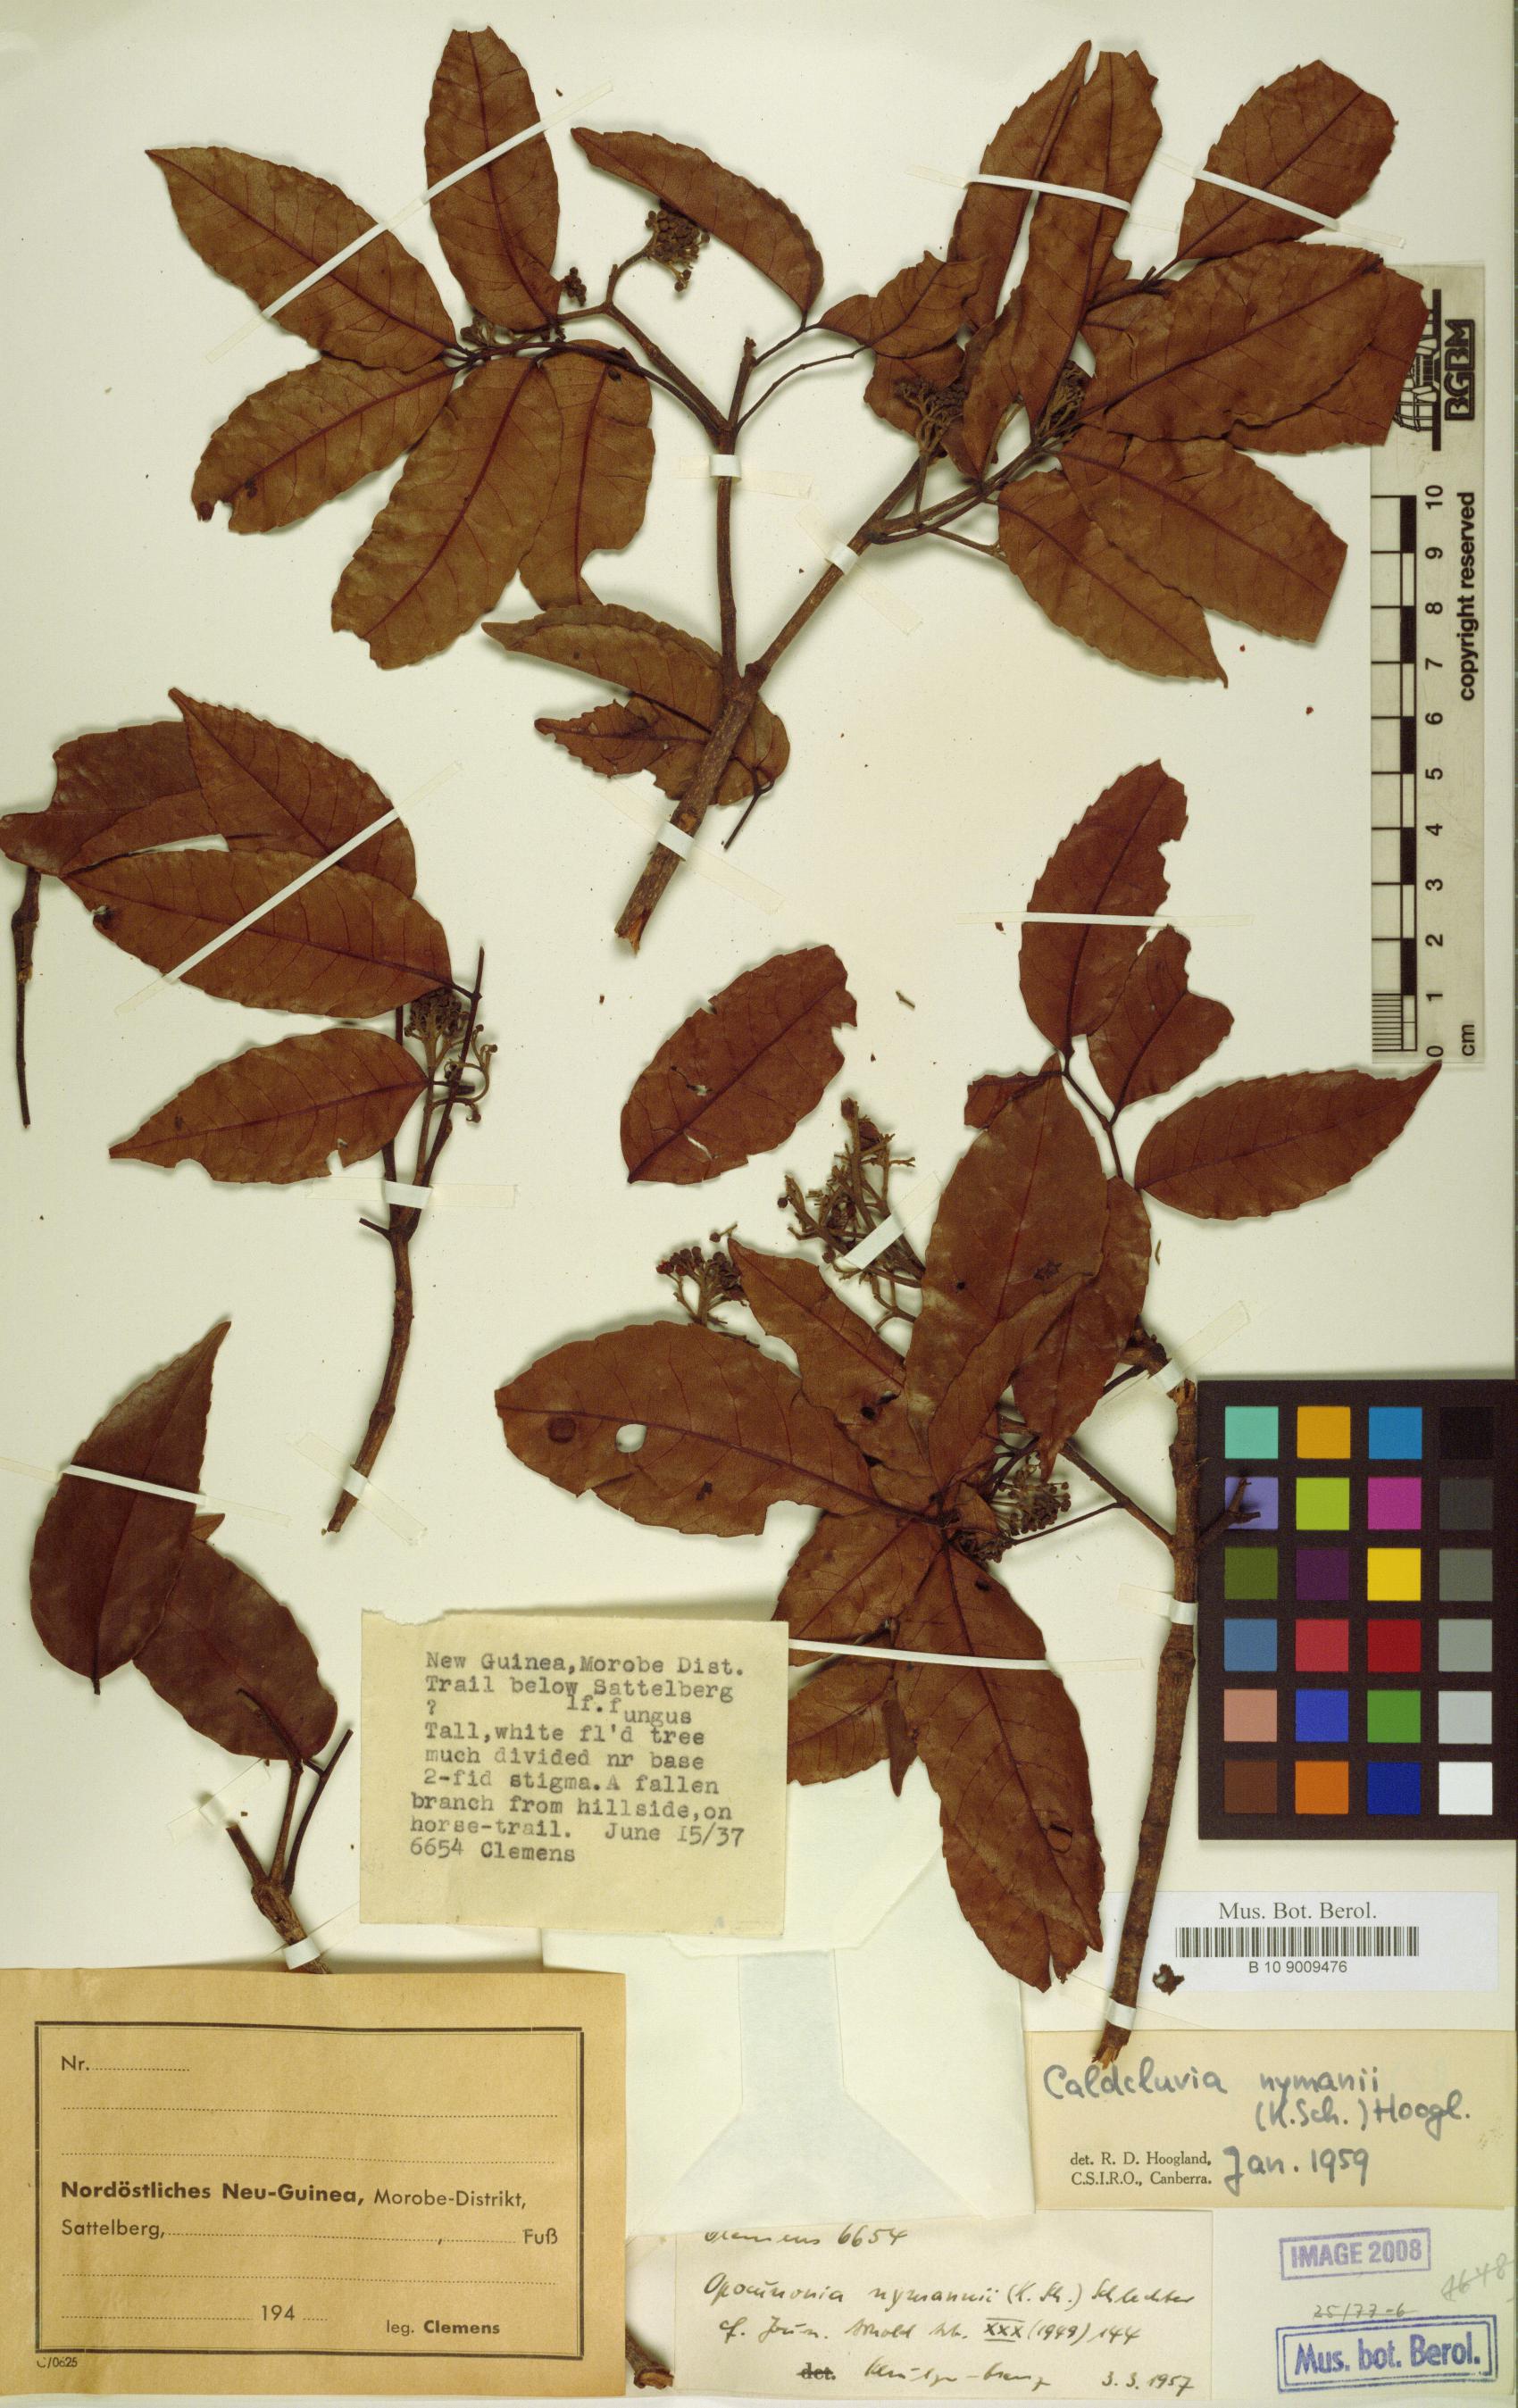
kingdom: Plantae
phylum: Tracheophyta
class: Magnoliopsida
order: Oxalidales
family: Cunoniaceae
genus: Opocunonia
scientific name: Opocunonia nymanii
